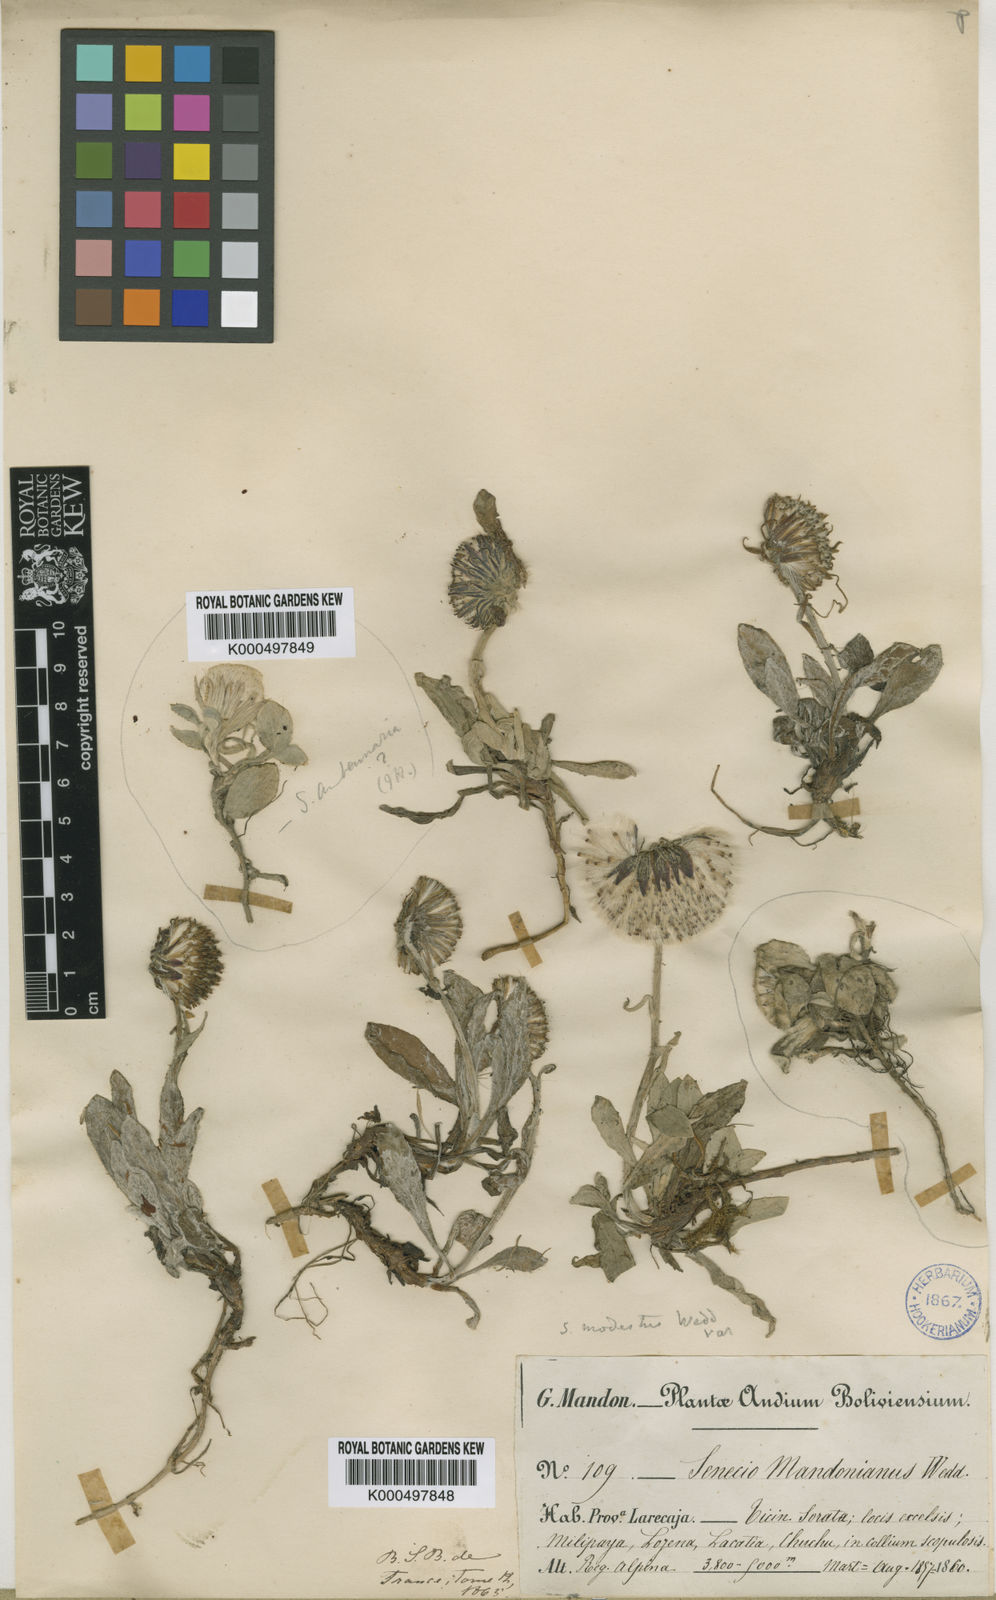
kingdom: Plantae
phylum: Tracheophyta
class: Magnoliopsida
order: Asterales
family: Asteraceae
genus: Culcitium
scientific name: Culcitium humile
